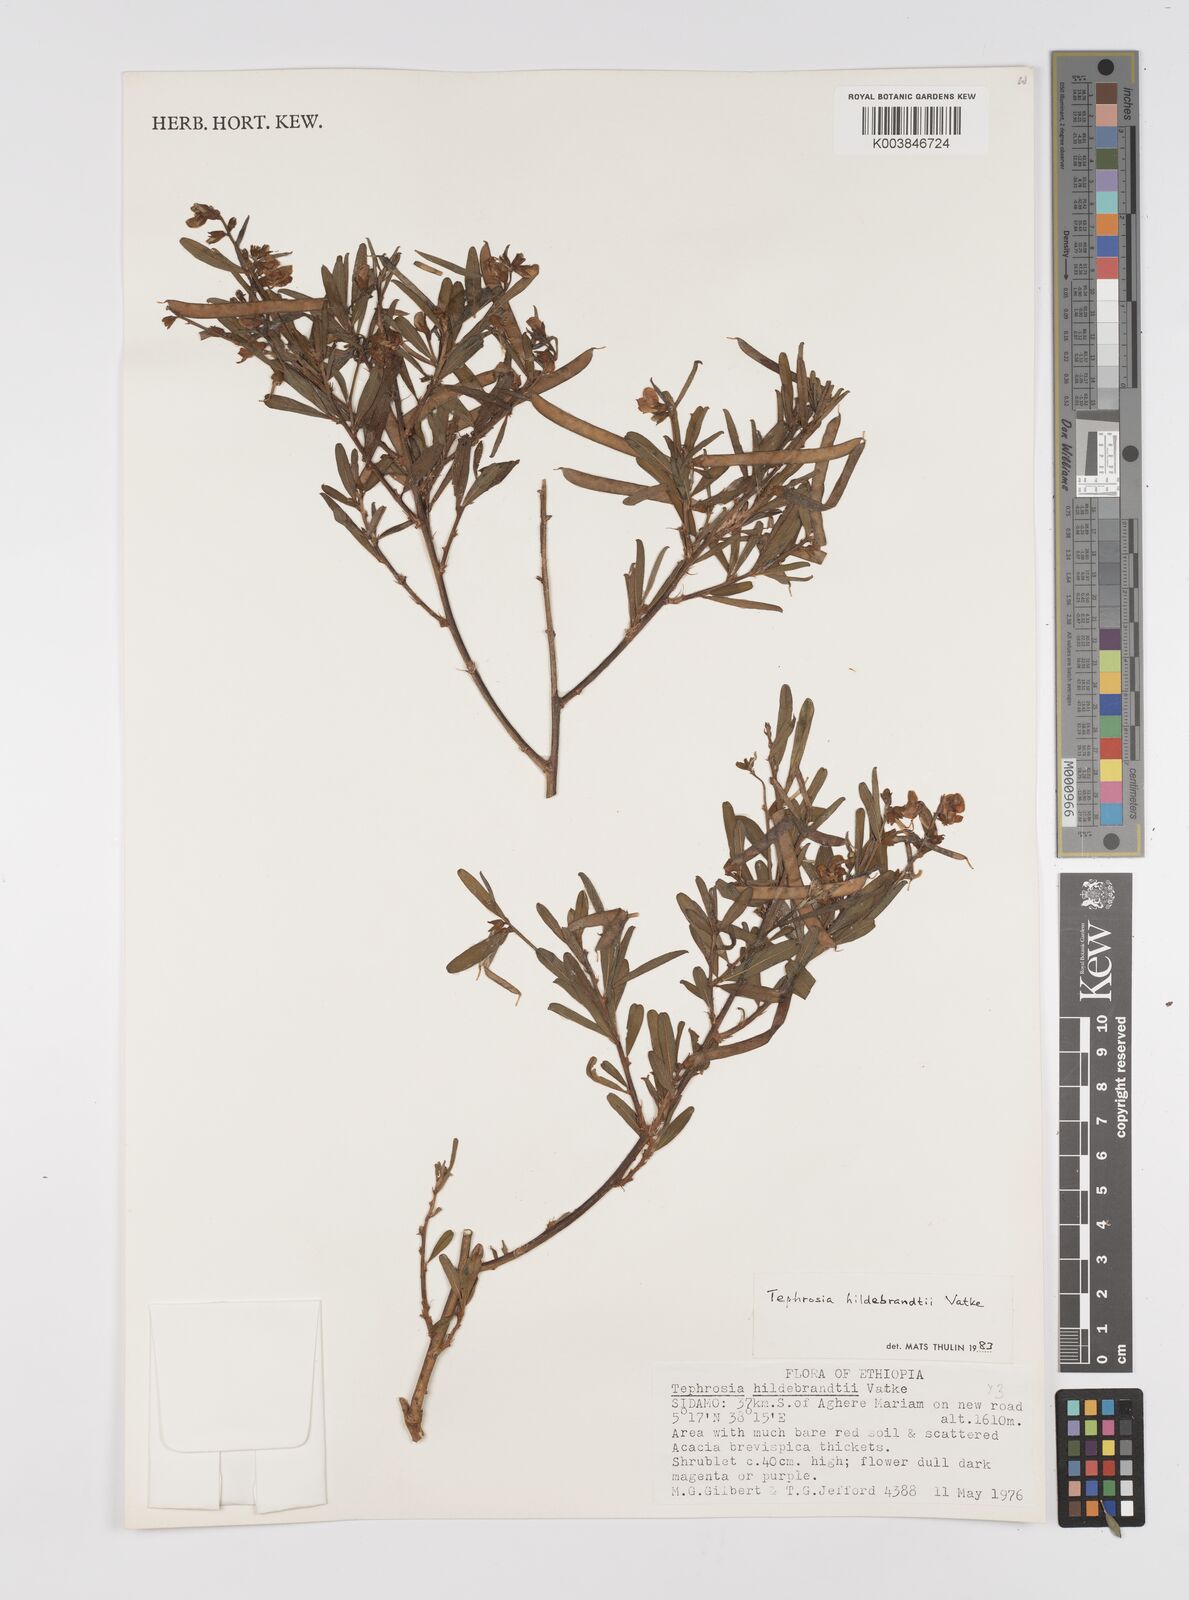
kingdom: Plantae
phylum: Tracheophyta
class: Magnoliopsida
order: Fabales
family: Fabaceae
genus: Tephrosia
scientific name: Tephrosia hildebrandtii
